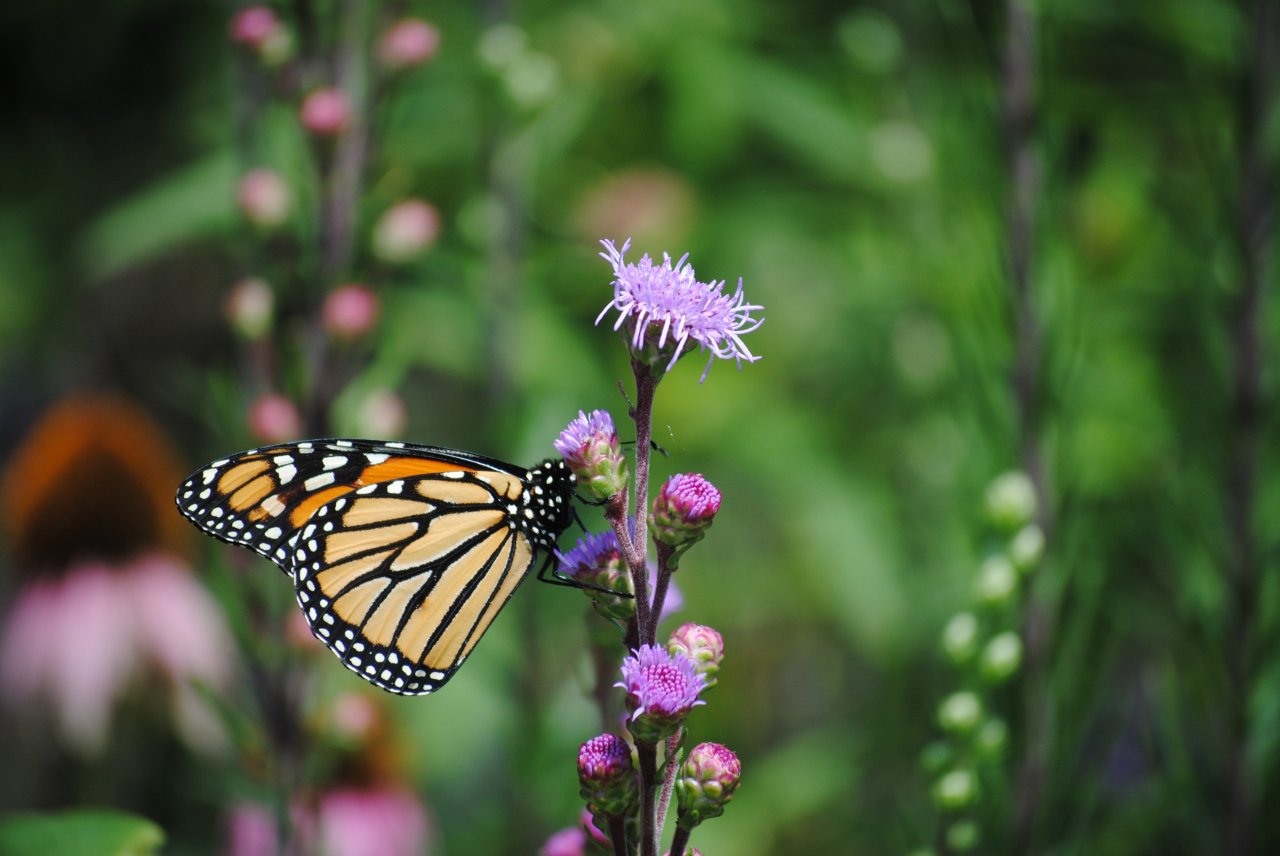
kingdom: Animalia
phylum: Arthropoda
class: Insecta
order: Lepidoptera
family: Nymphalidae
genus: Danaus
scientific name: Danaus plexippus
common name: Monarch
